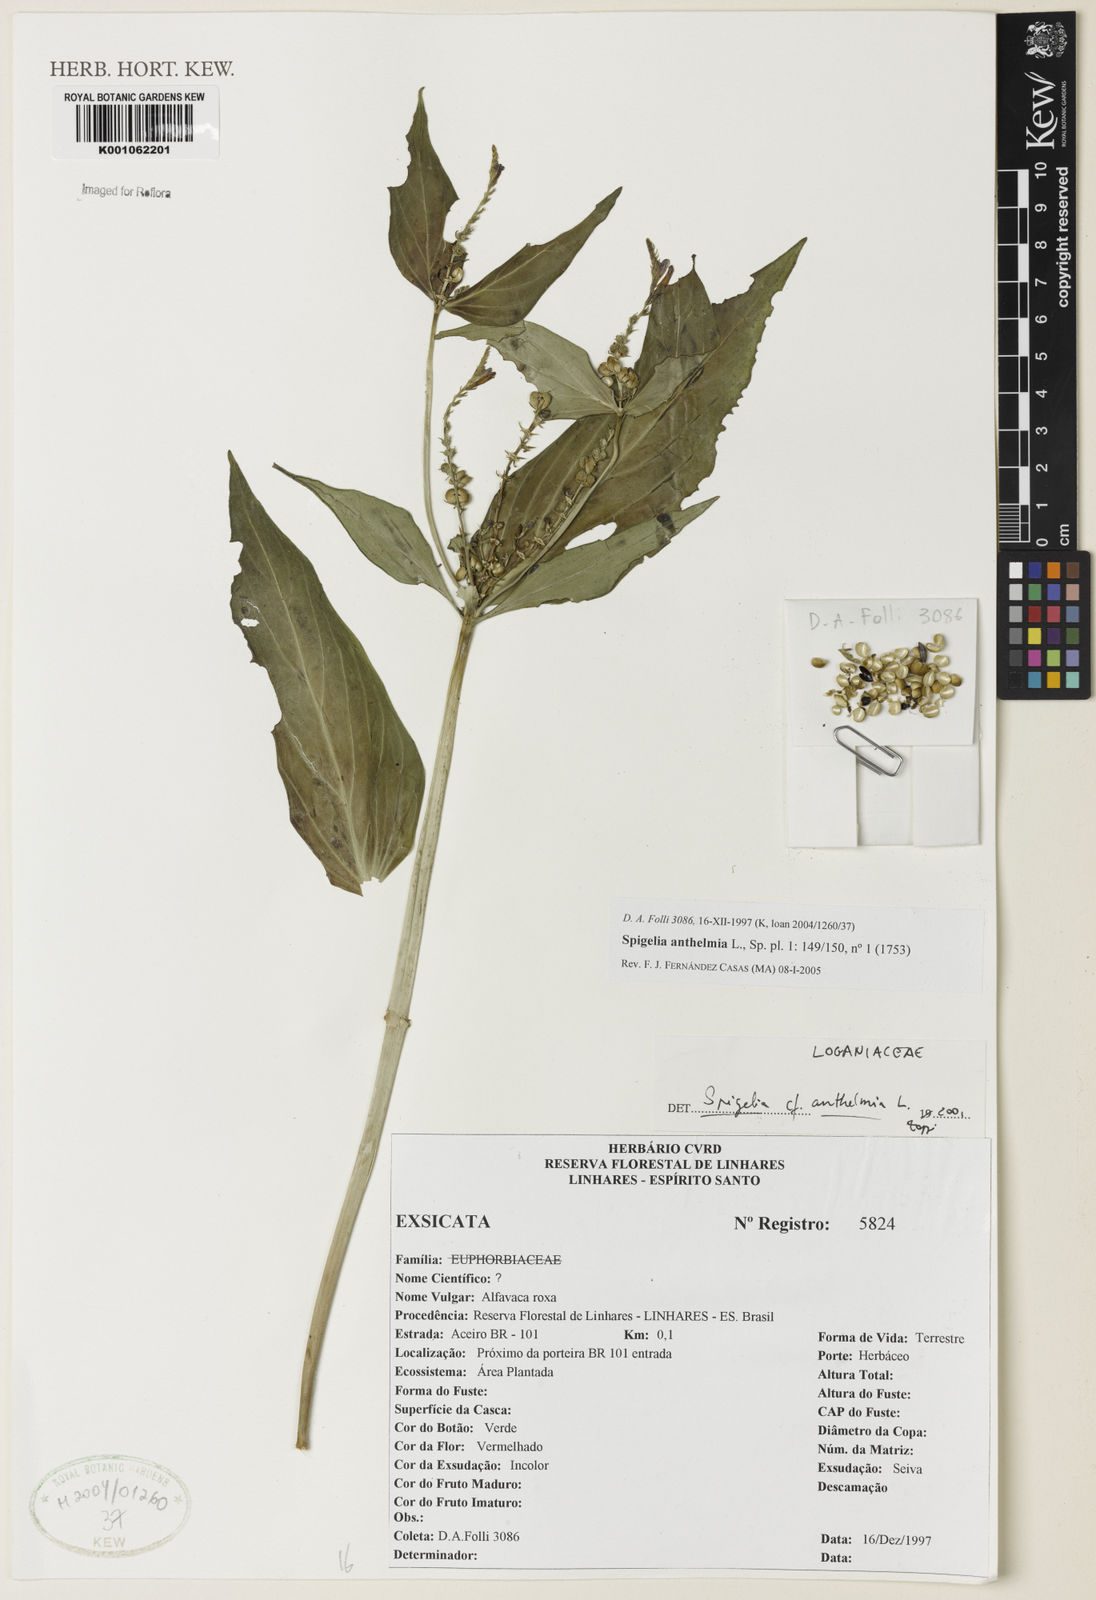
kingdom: Plantae
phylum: Tracheophyta
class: Magnoliopsida
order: Gentianales
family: Loganiaceae
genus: Spigelia
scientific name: Spigelia anthelmia
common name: West indian-pink
